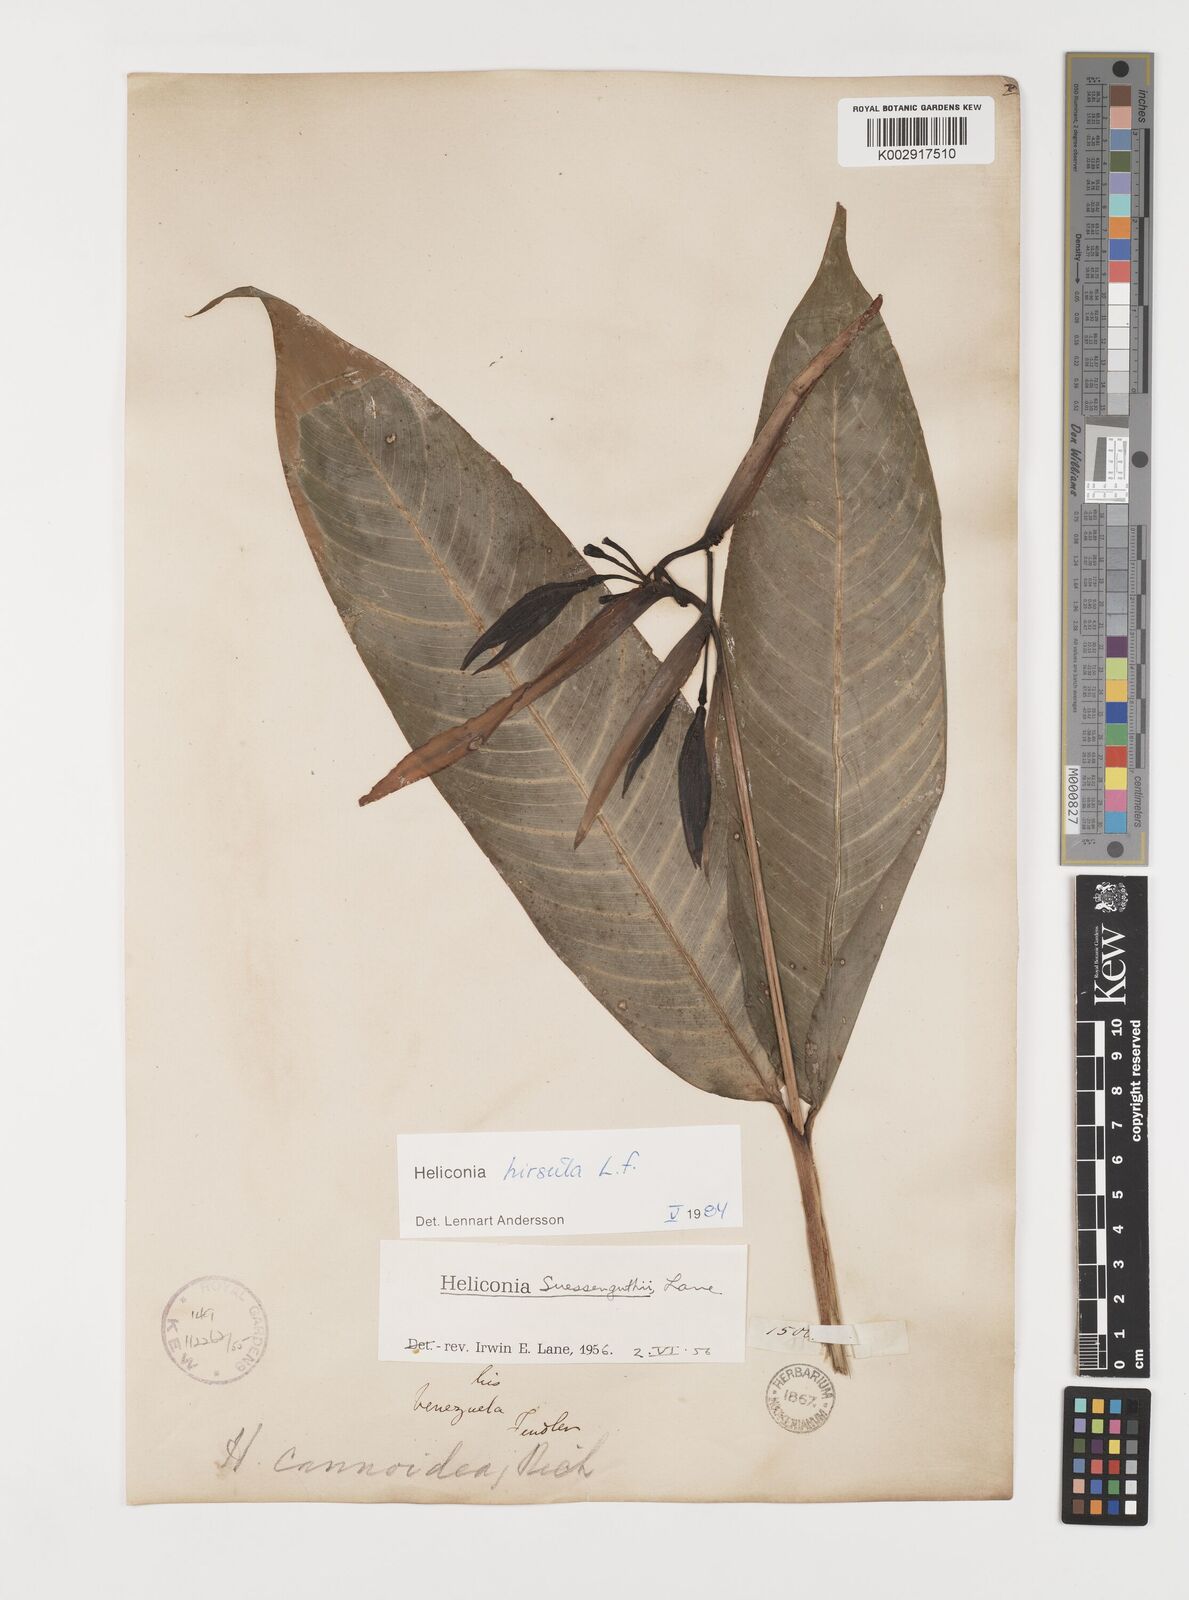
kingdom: Plantae
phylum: Tracheophyta
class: Liliopsida
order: Zingiberales
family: Heliconiaceae
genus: Heliconia
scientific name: Heliconia hirsuta
